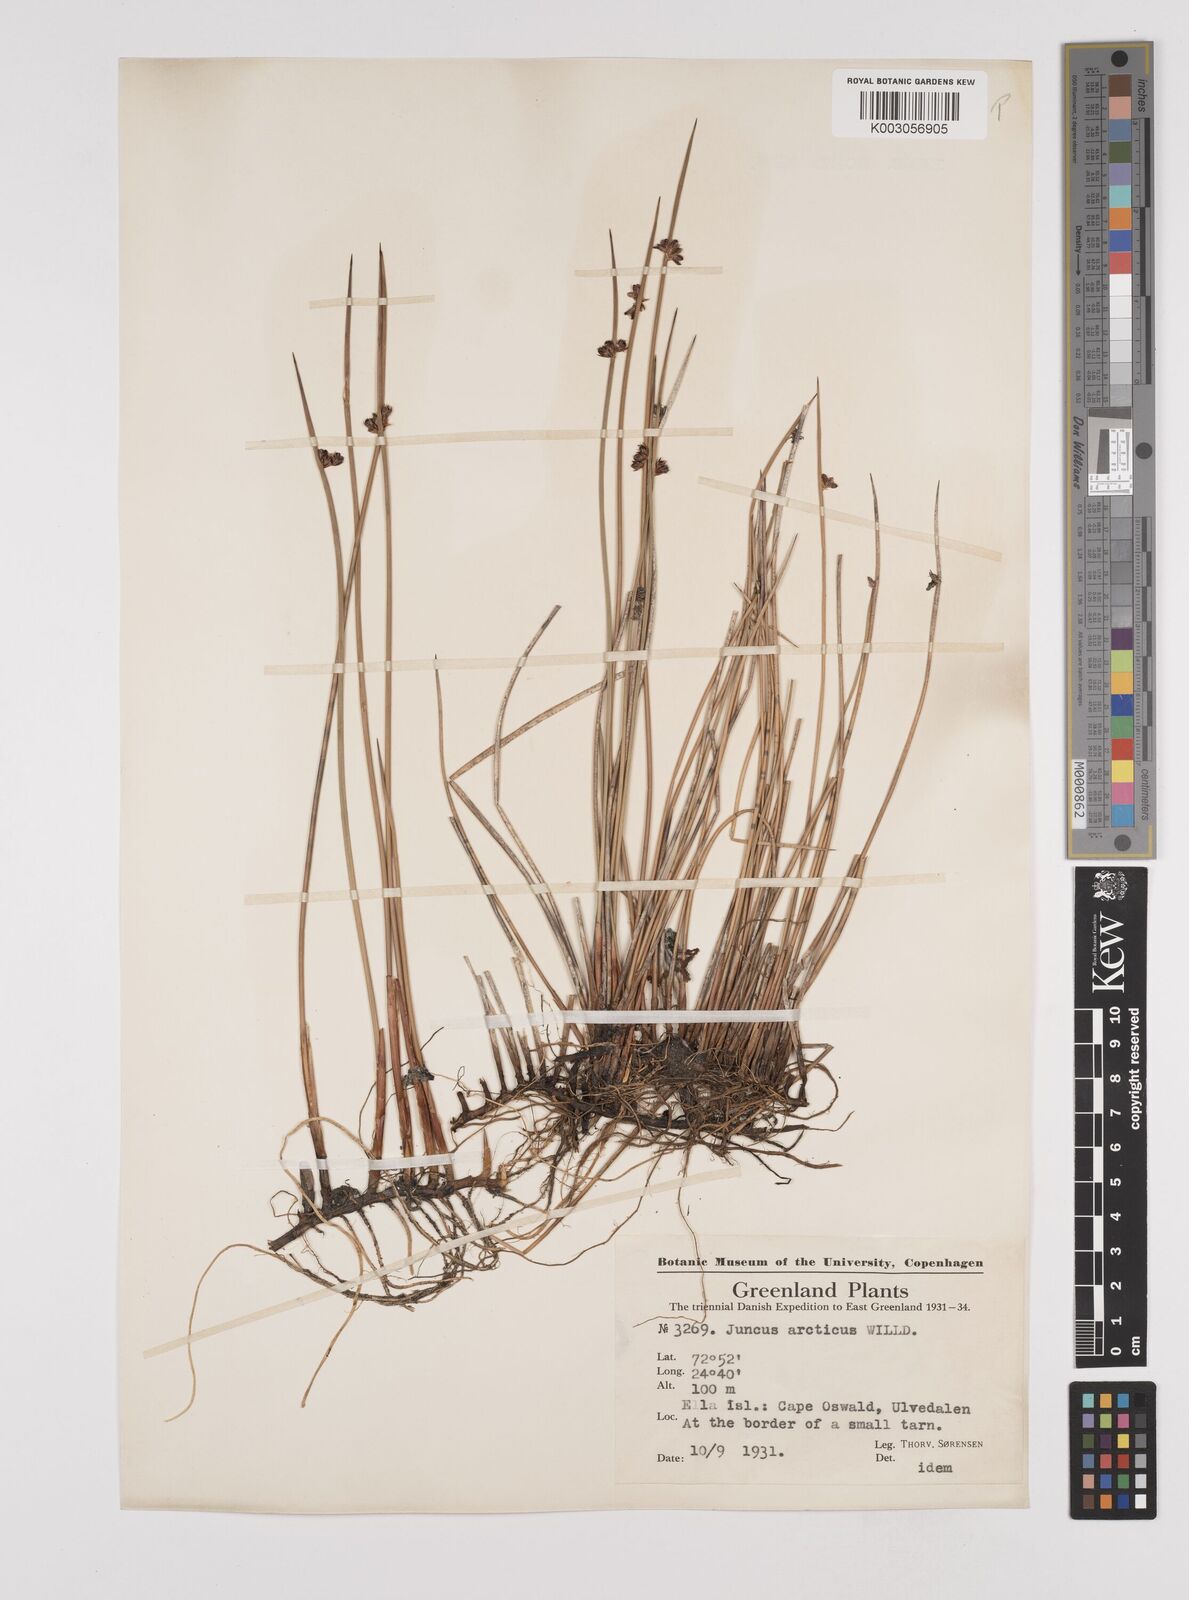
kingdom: Plantae
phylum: Tracheophyta
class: Liliopsida
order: Poales
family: Juncaceae
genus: Juncus
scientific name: Juncus arcticus
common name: Arctic rush
